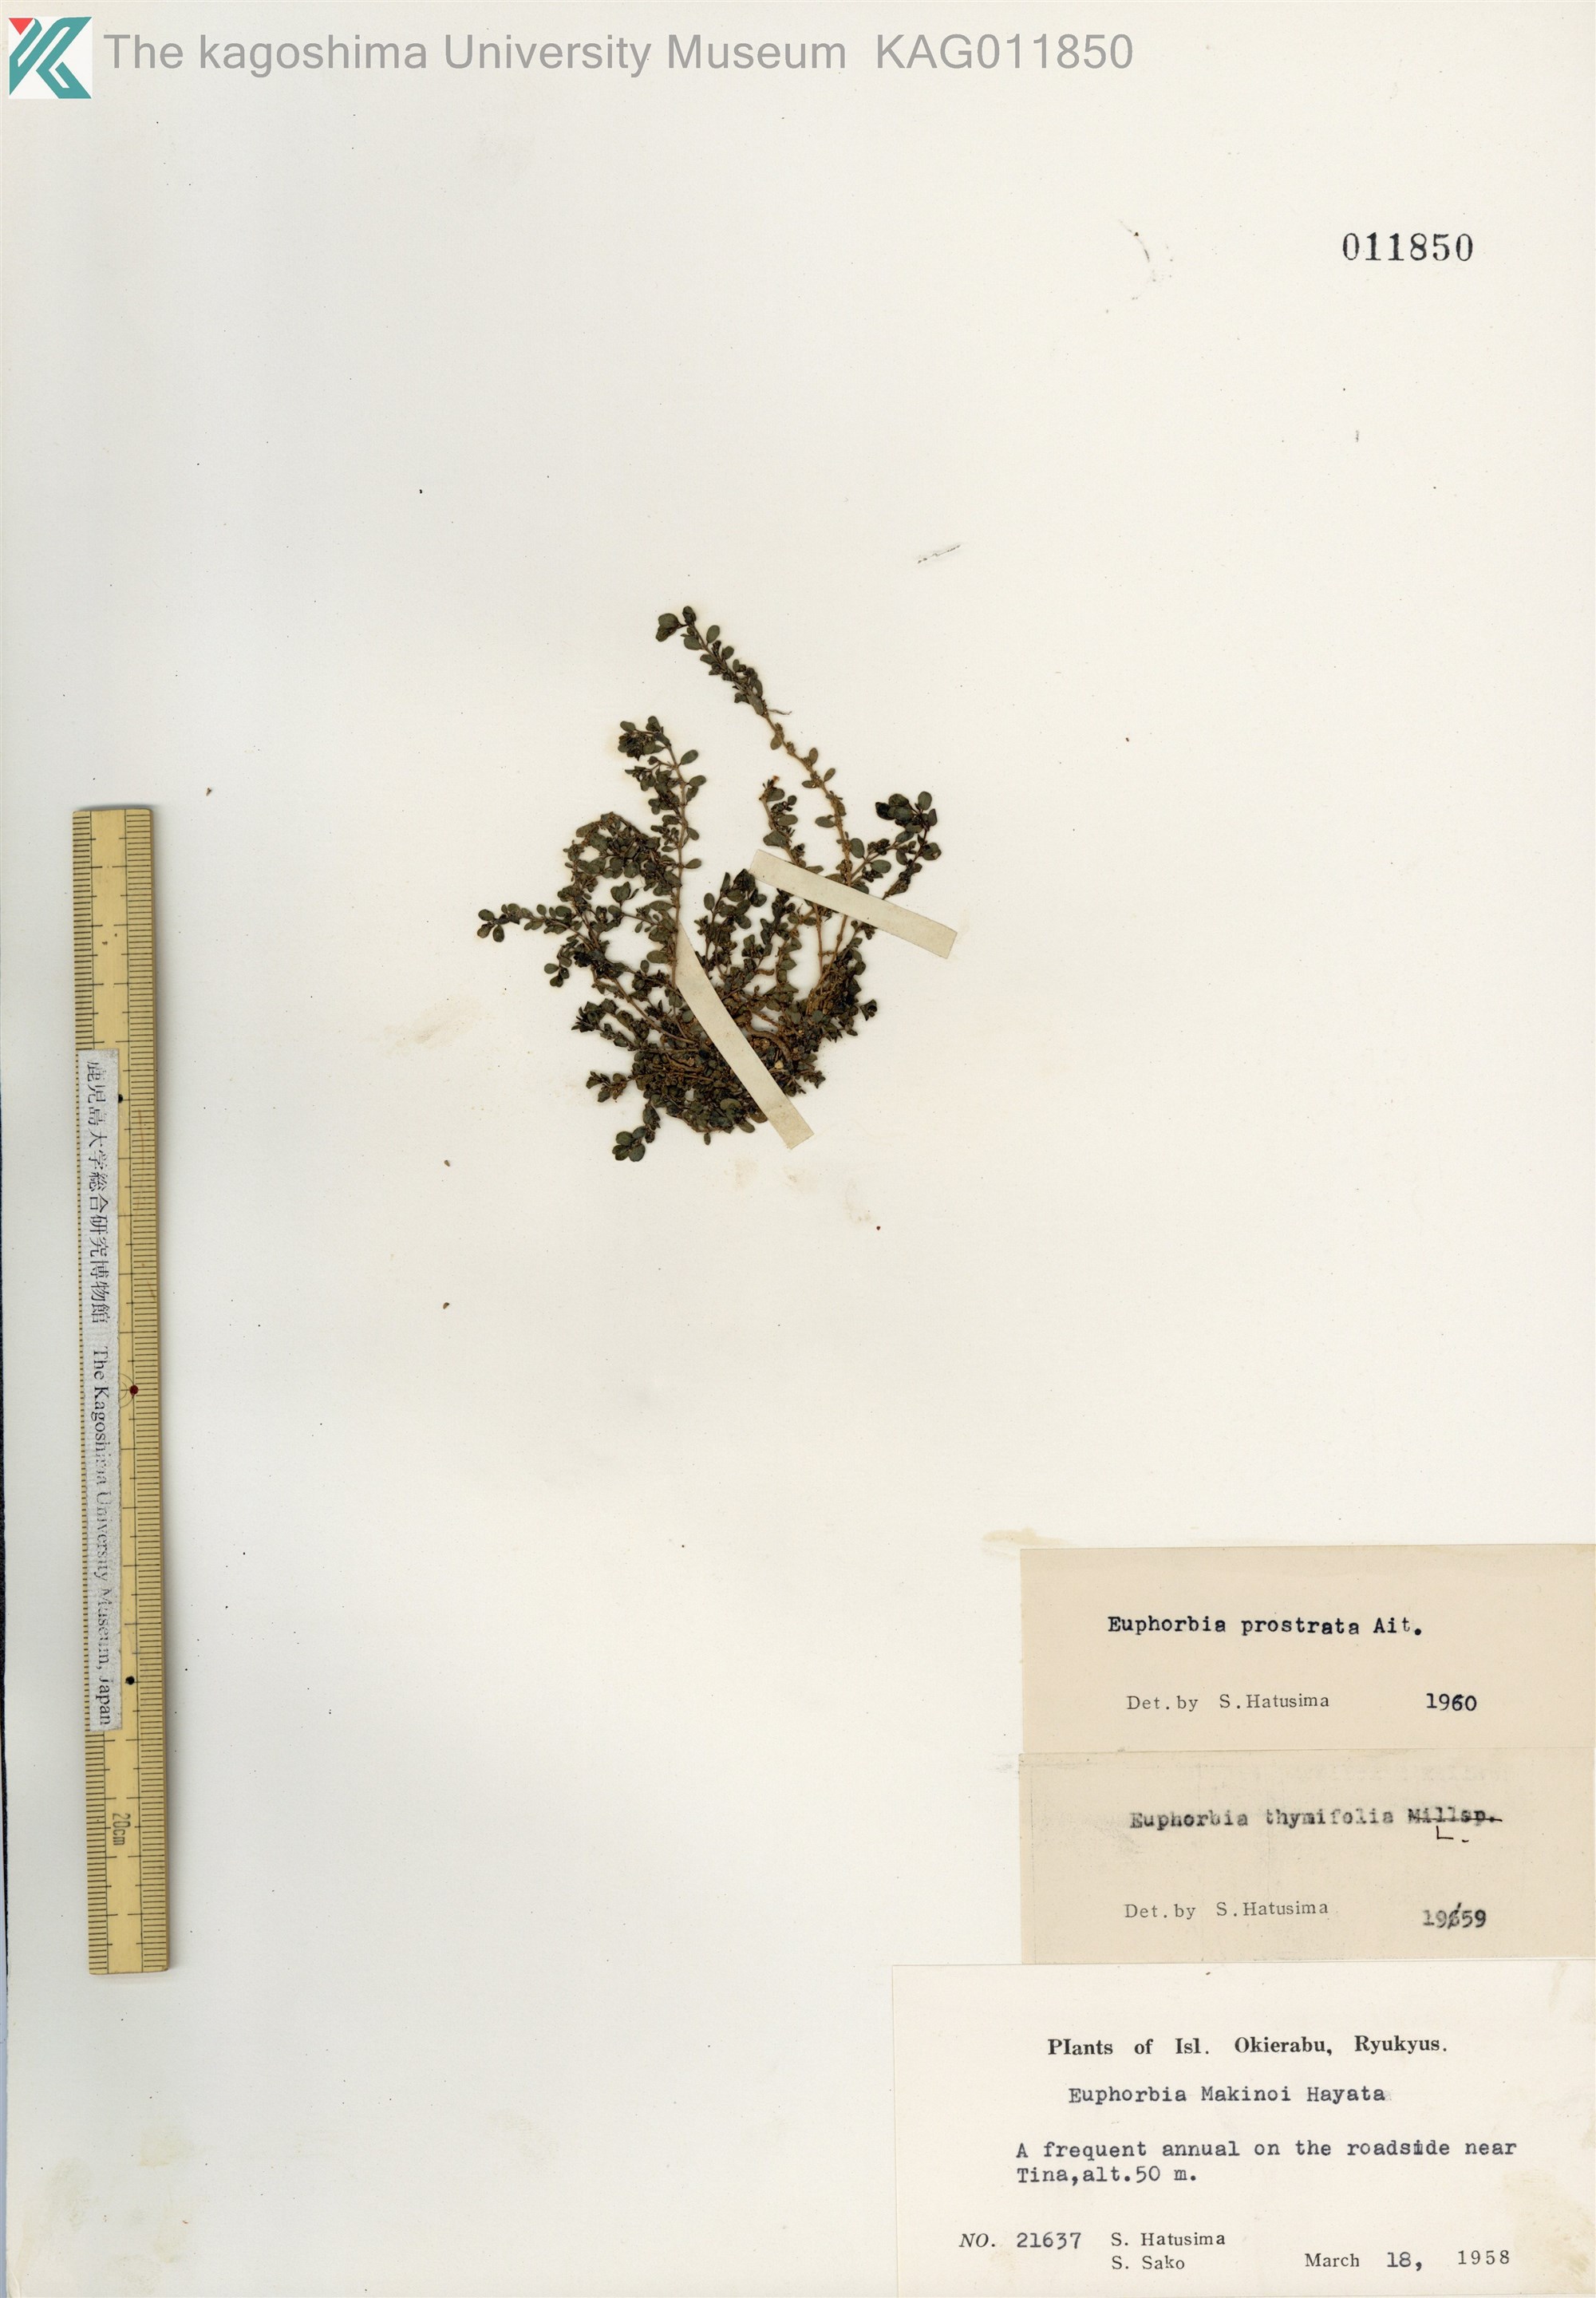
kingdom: Plantae
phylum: Tracheophyta
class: Magnoliopsida
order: Malpighiales
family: Euphorbiaceae
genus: Euphorbia
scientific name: Euphorbia prostrata
